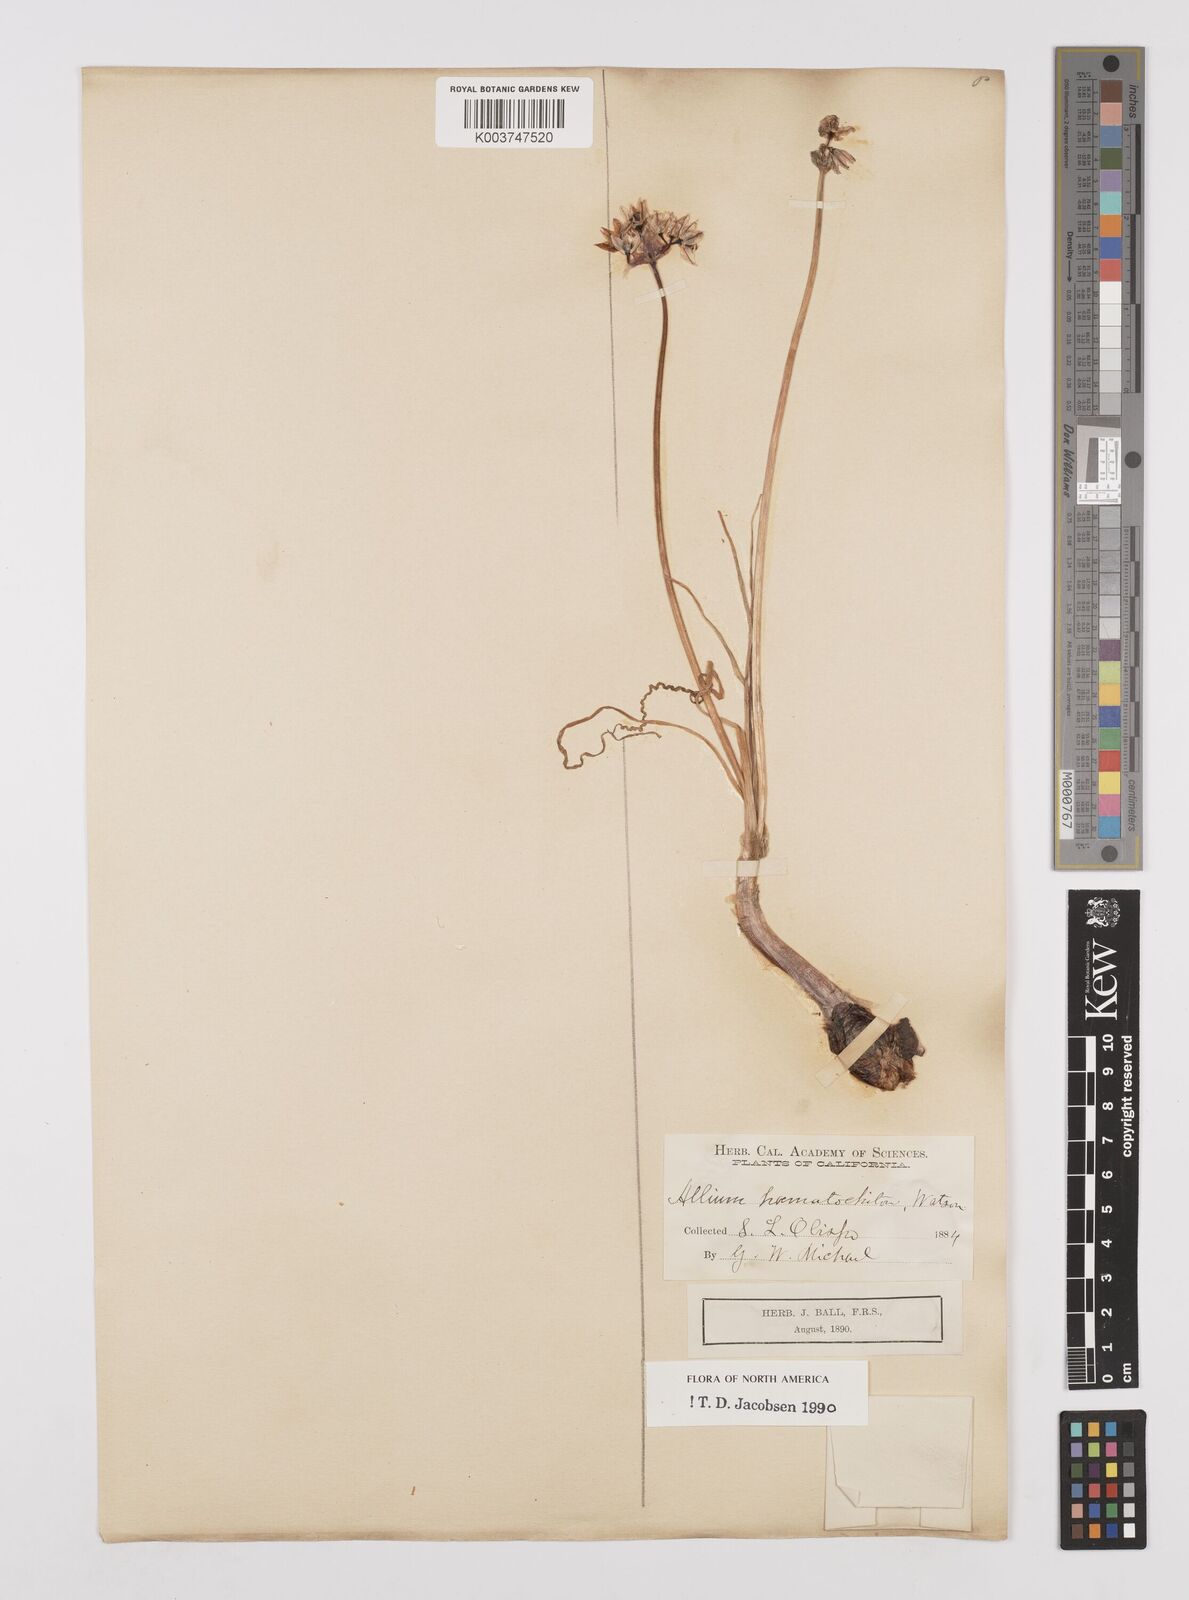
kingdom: Plantae
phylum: Tracheophyta
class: Liliopsida
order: Asparagales
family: Amaryllidaceae
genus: Allium
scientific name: Allium haematochiton
